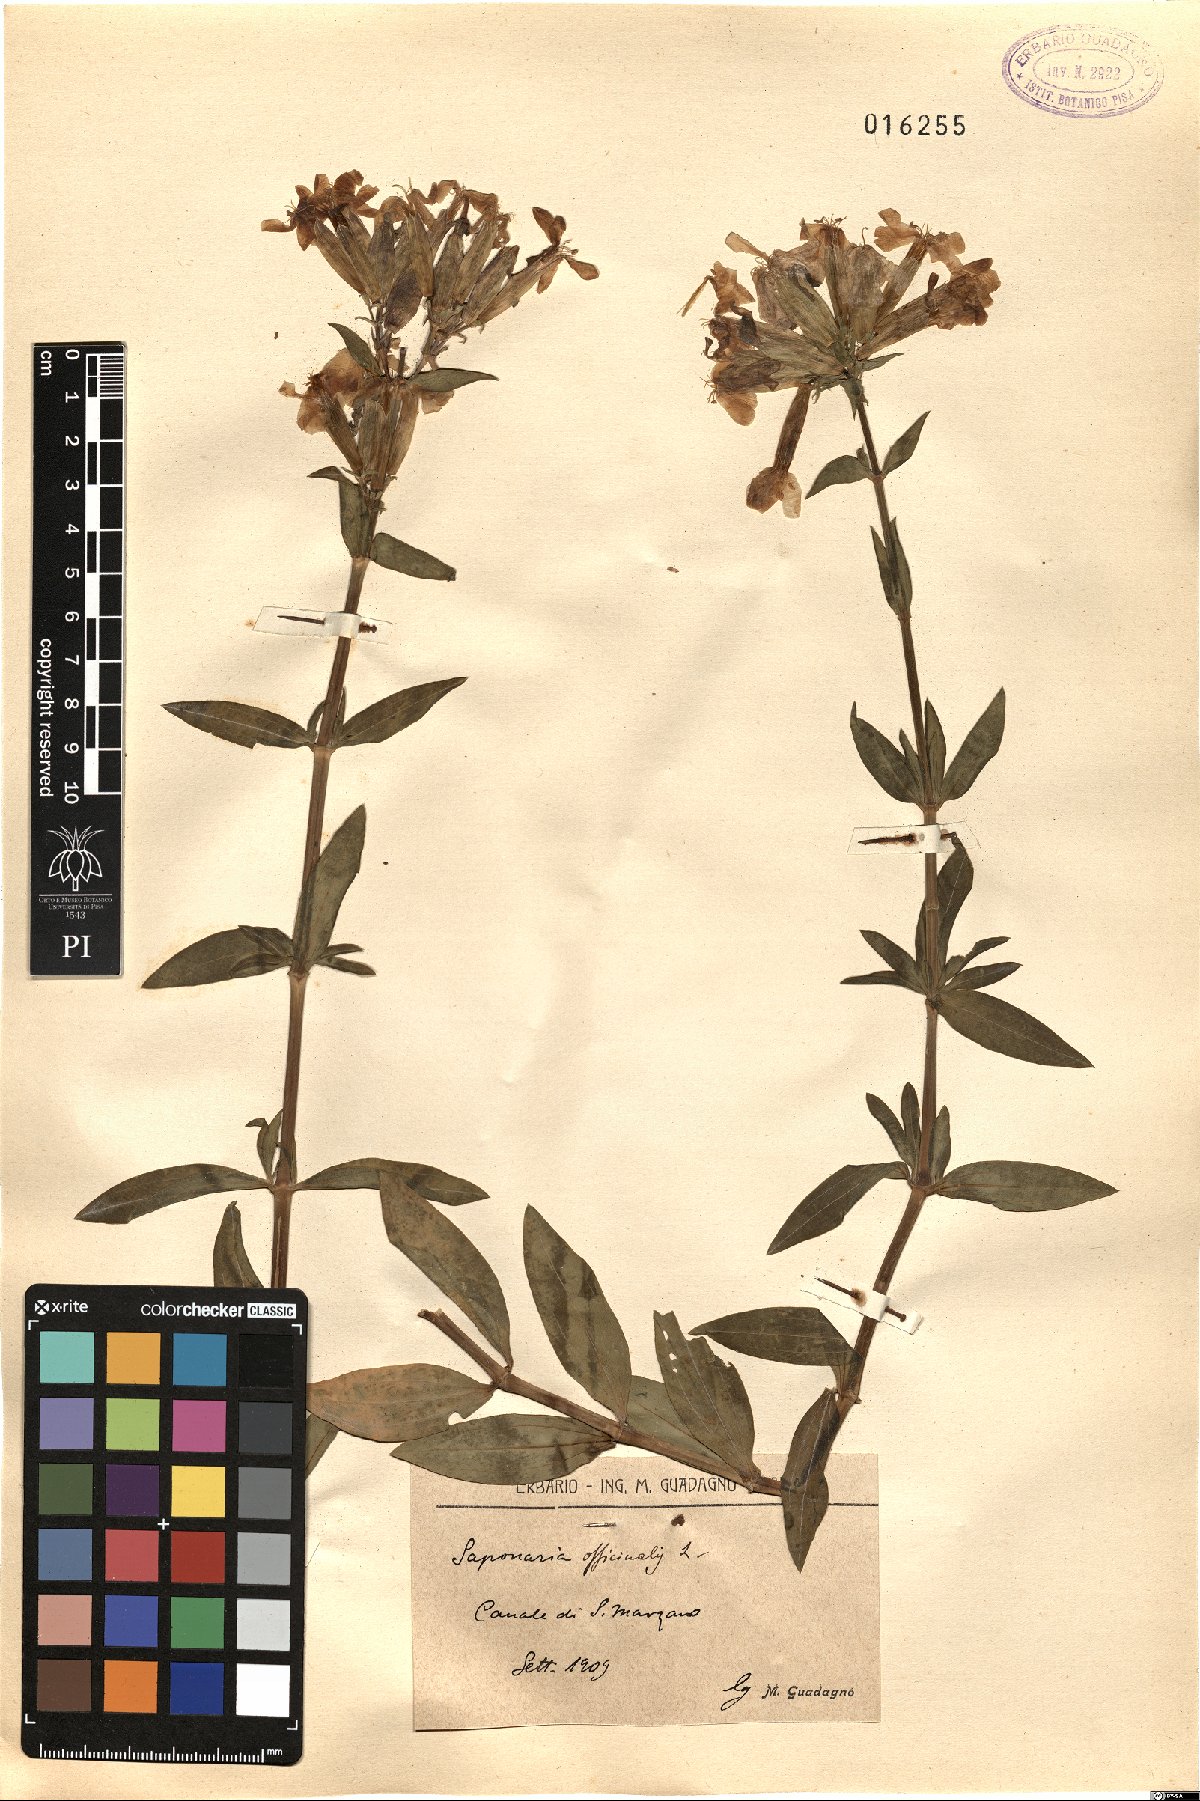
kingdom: Plantae
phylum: Tracheophyta
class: Magnoliopsida
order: Caryophyllales
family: Caryophyllaceae
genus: Saponaria
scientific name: Saponaria officinalis
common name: Soapwort
